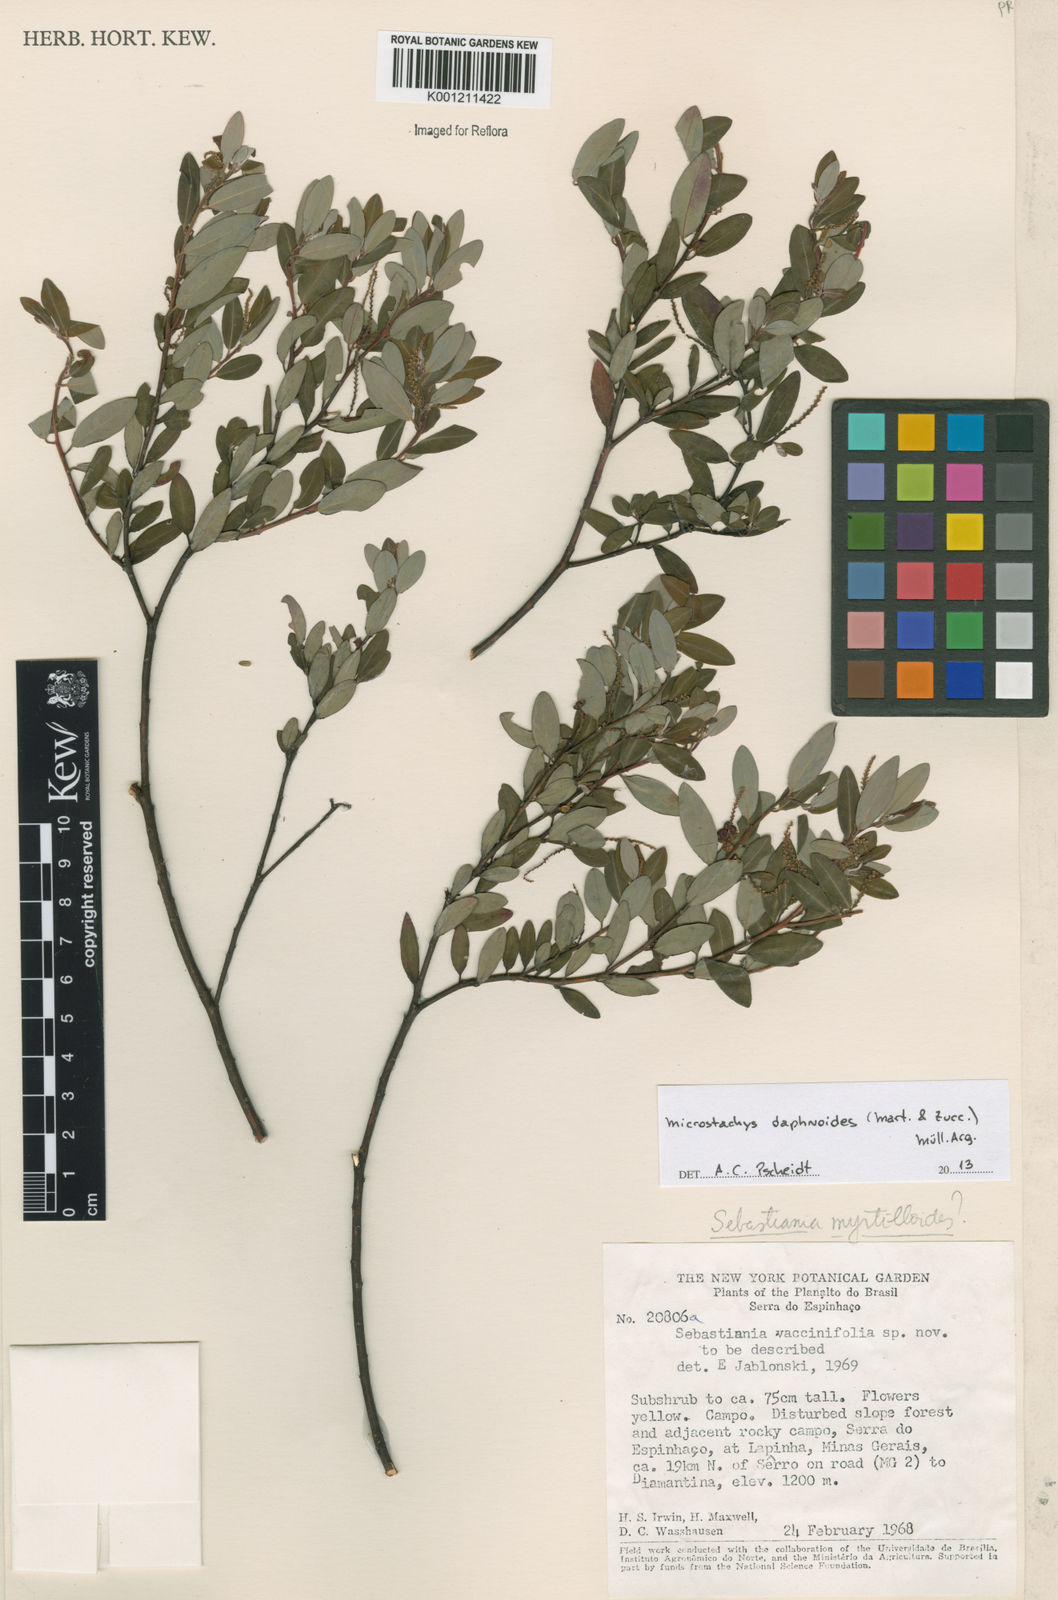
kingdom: Plantae
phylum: Tracheophyta
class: Magnoliopsida
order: Malpighiales
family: Euphorbiaceae
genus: Microstachys
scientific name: Microstachys
